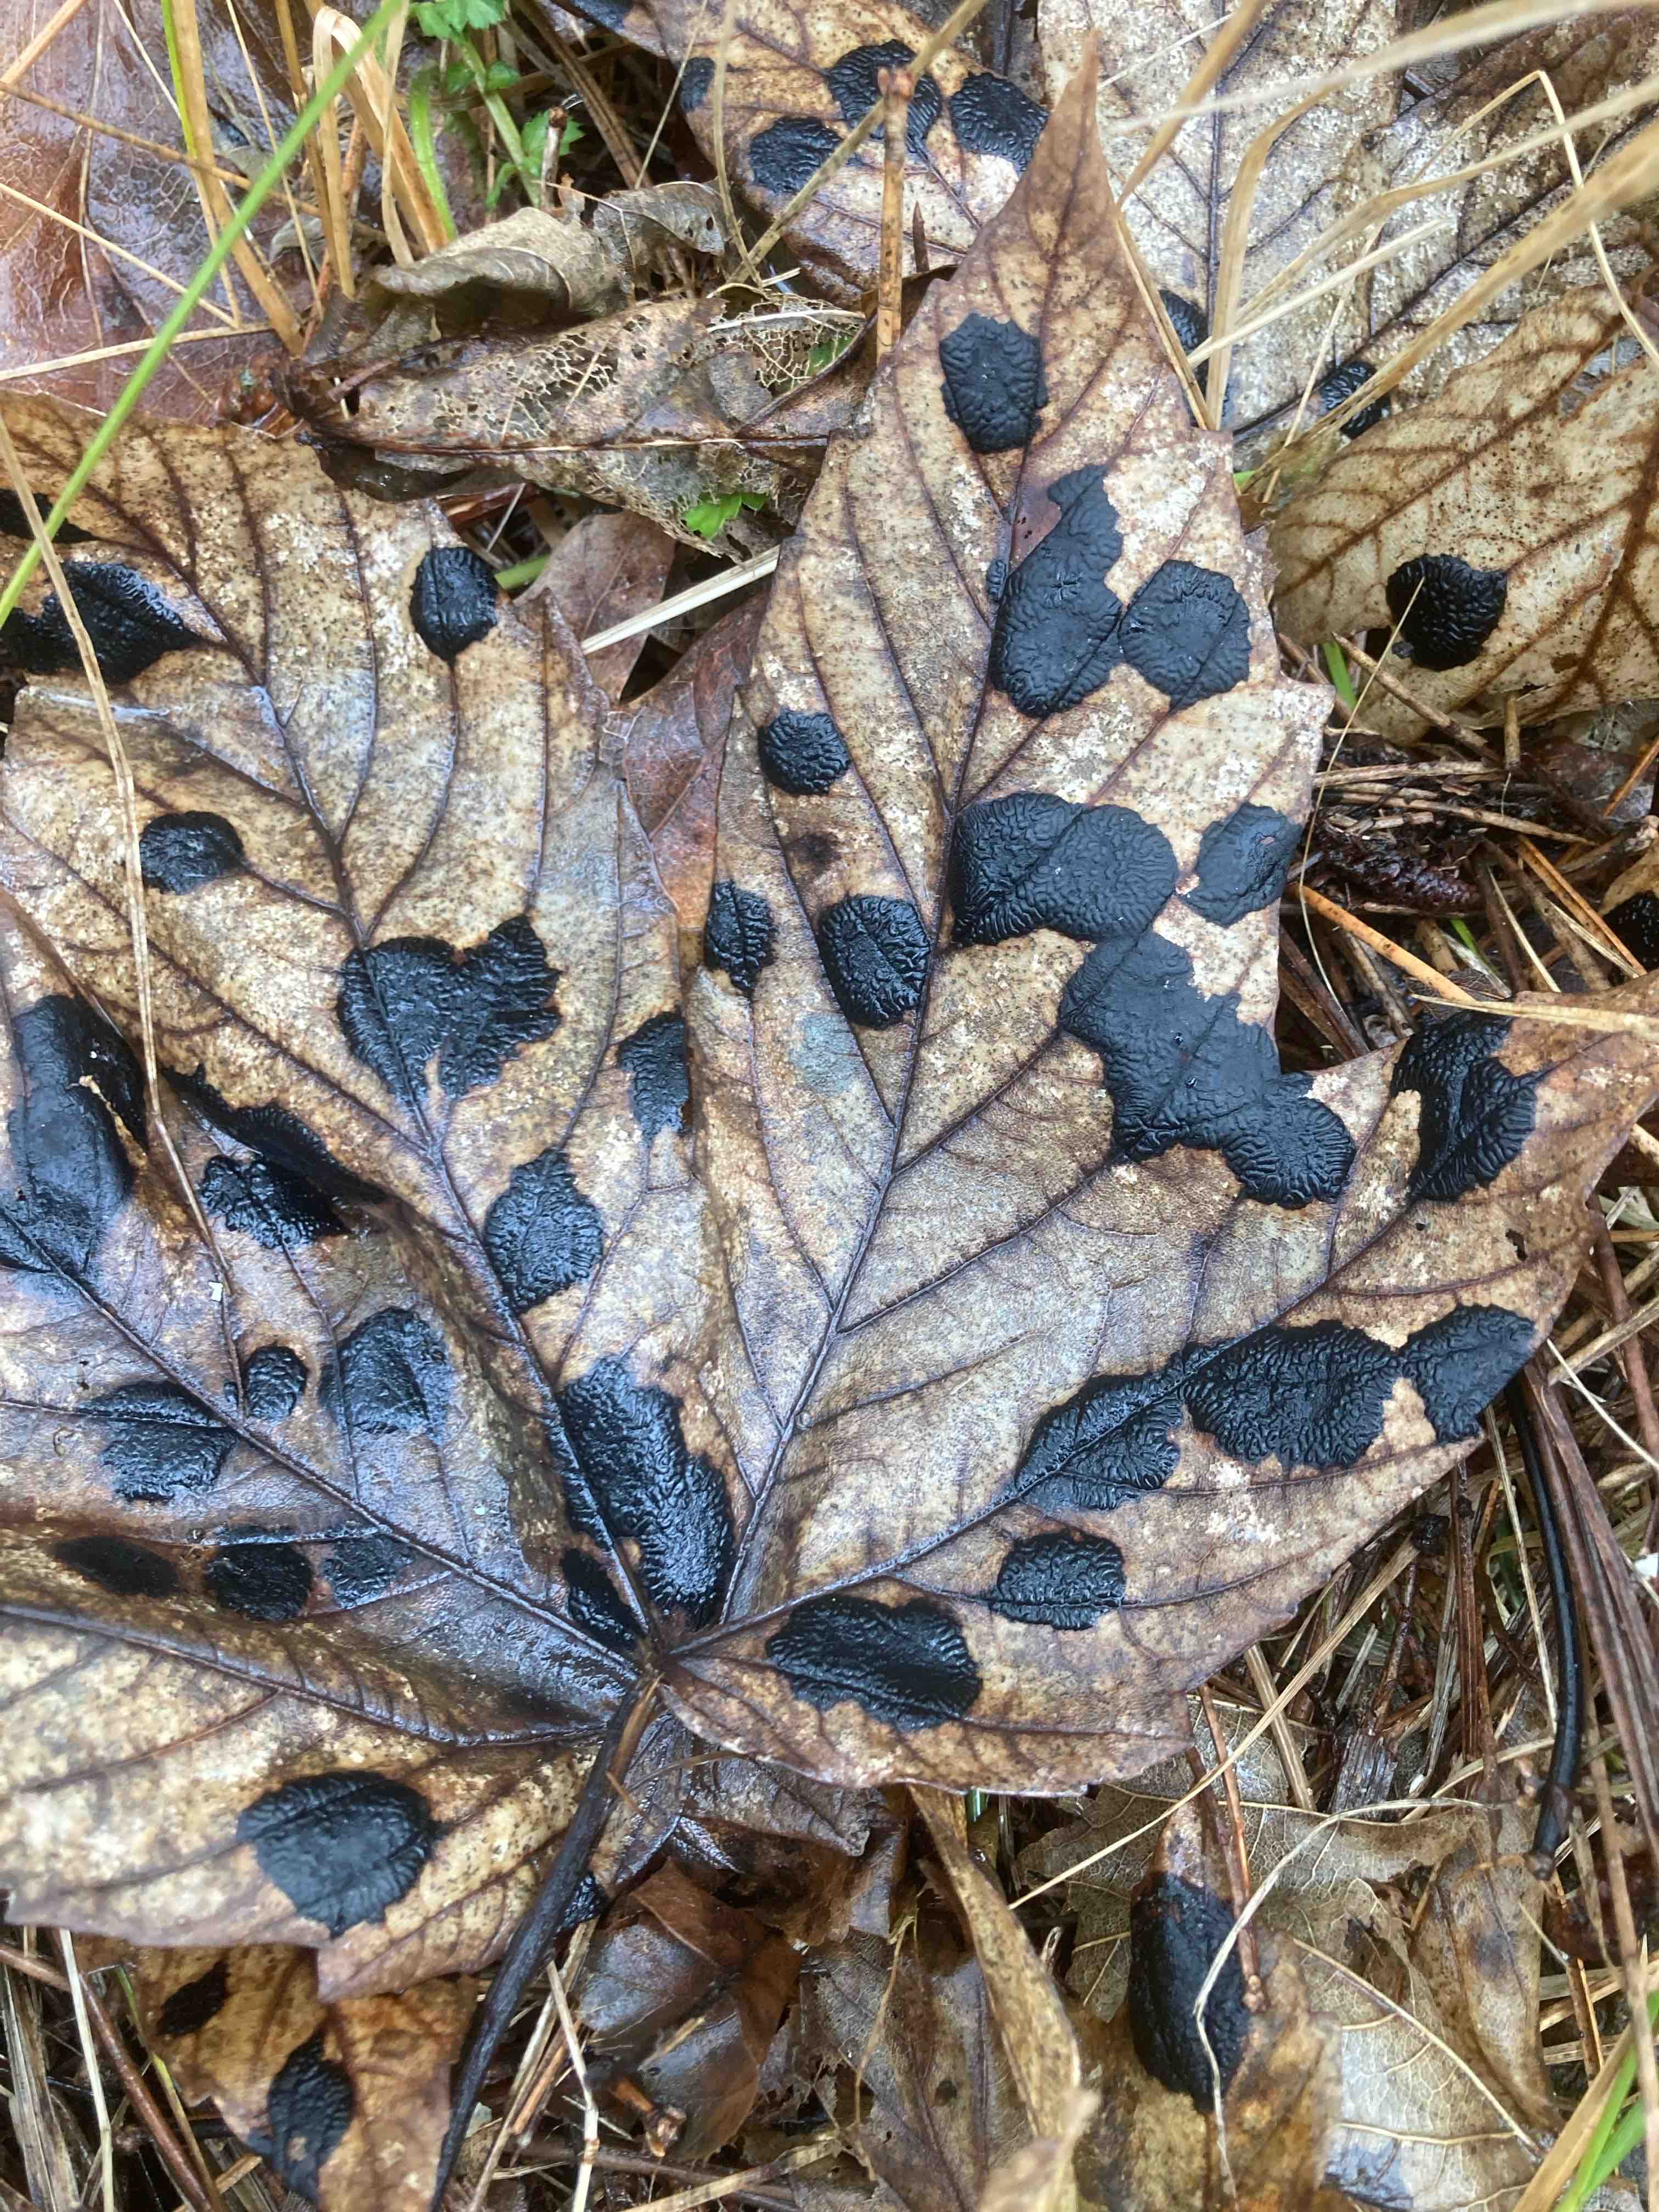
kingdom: Fungi
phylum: Ascomycota
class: Leotiomycetes
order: Rhytismatales
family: Rhytismataceae
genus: Rhytisma
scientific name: Rhytisma acerinum
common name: ahorn-rynkeplet
